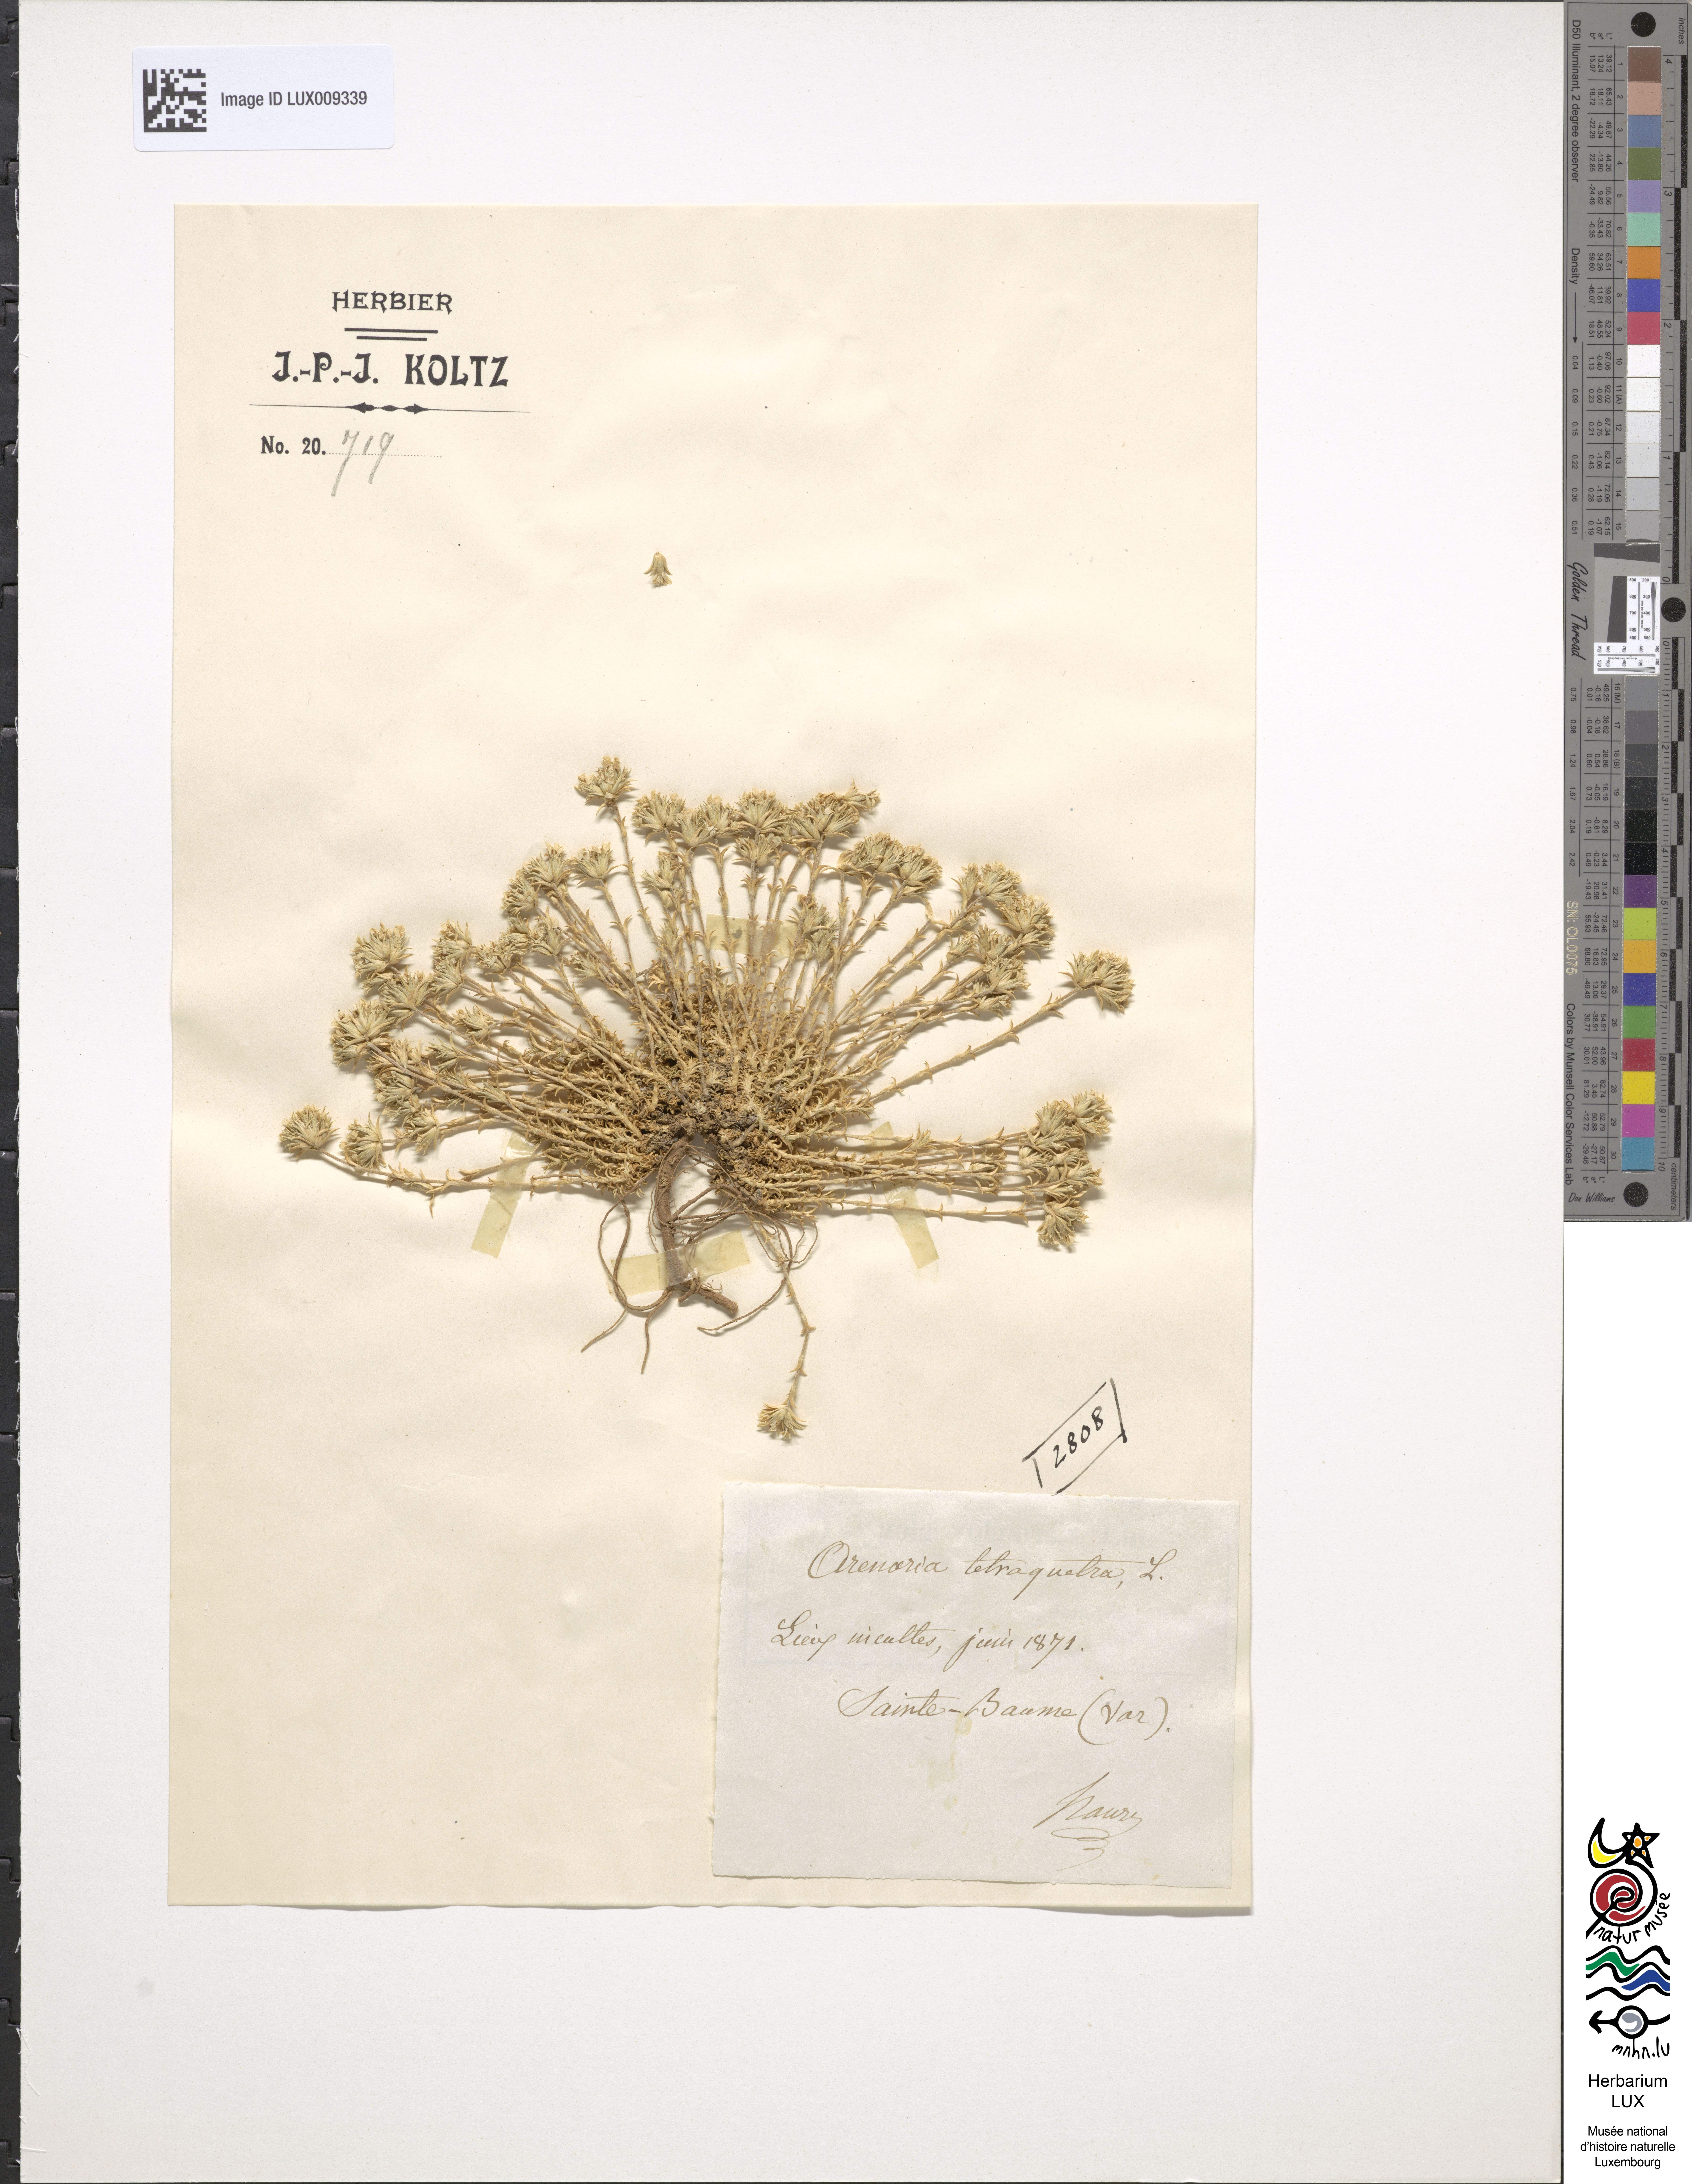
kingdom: Animalia
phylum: Chordata
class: Aves
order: Charadriiformes
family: Scolopacidae
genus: Arenaria
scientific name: Arenaria
